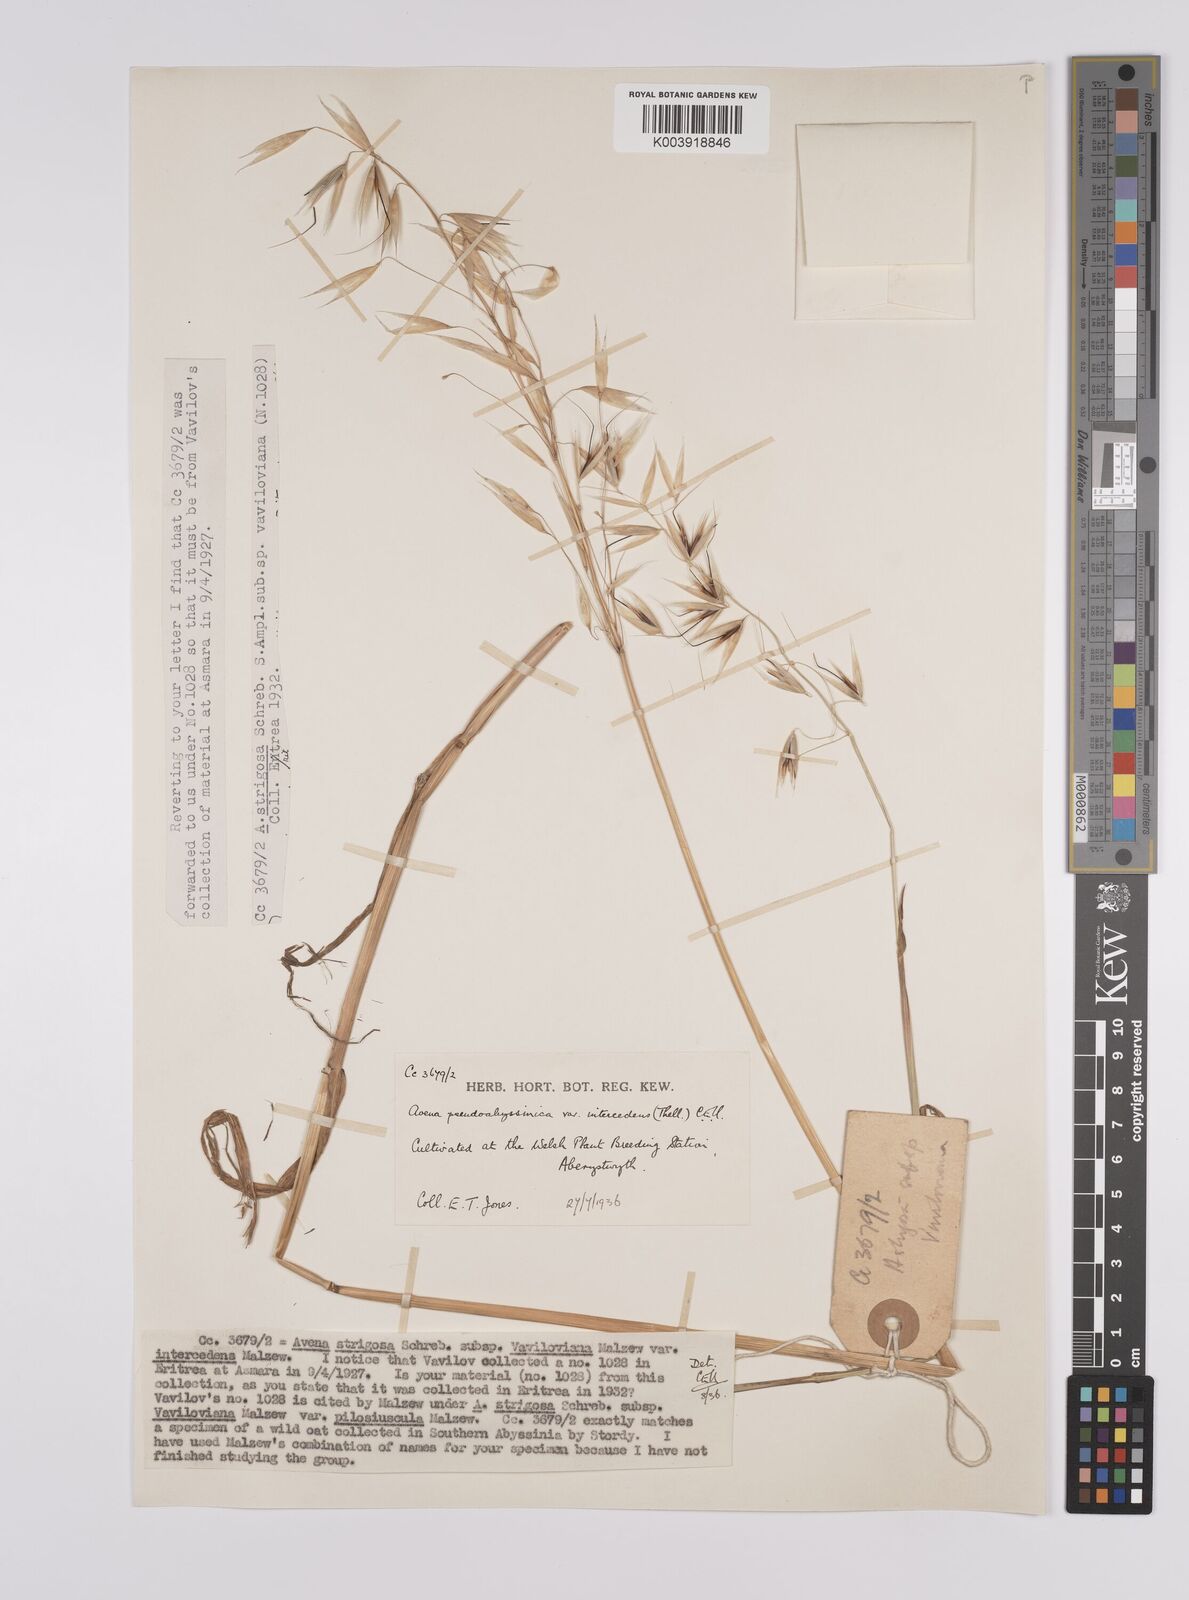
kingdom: Plantae
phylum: Tracheophyta
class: Liliopsida
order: Poales
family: Poaceae
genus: Avena
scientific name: Avena vaviloviana
